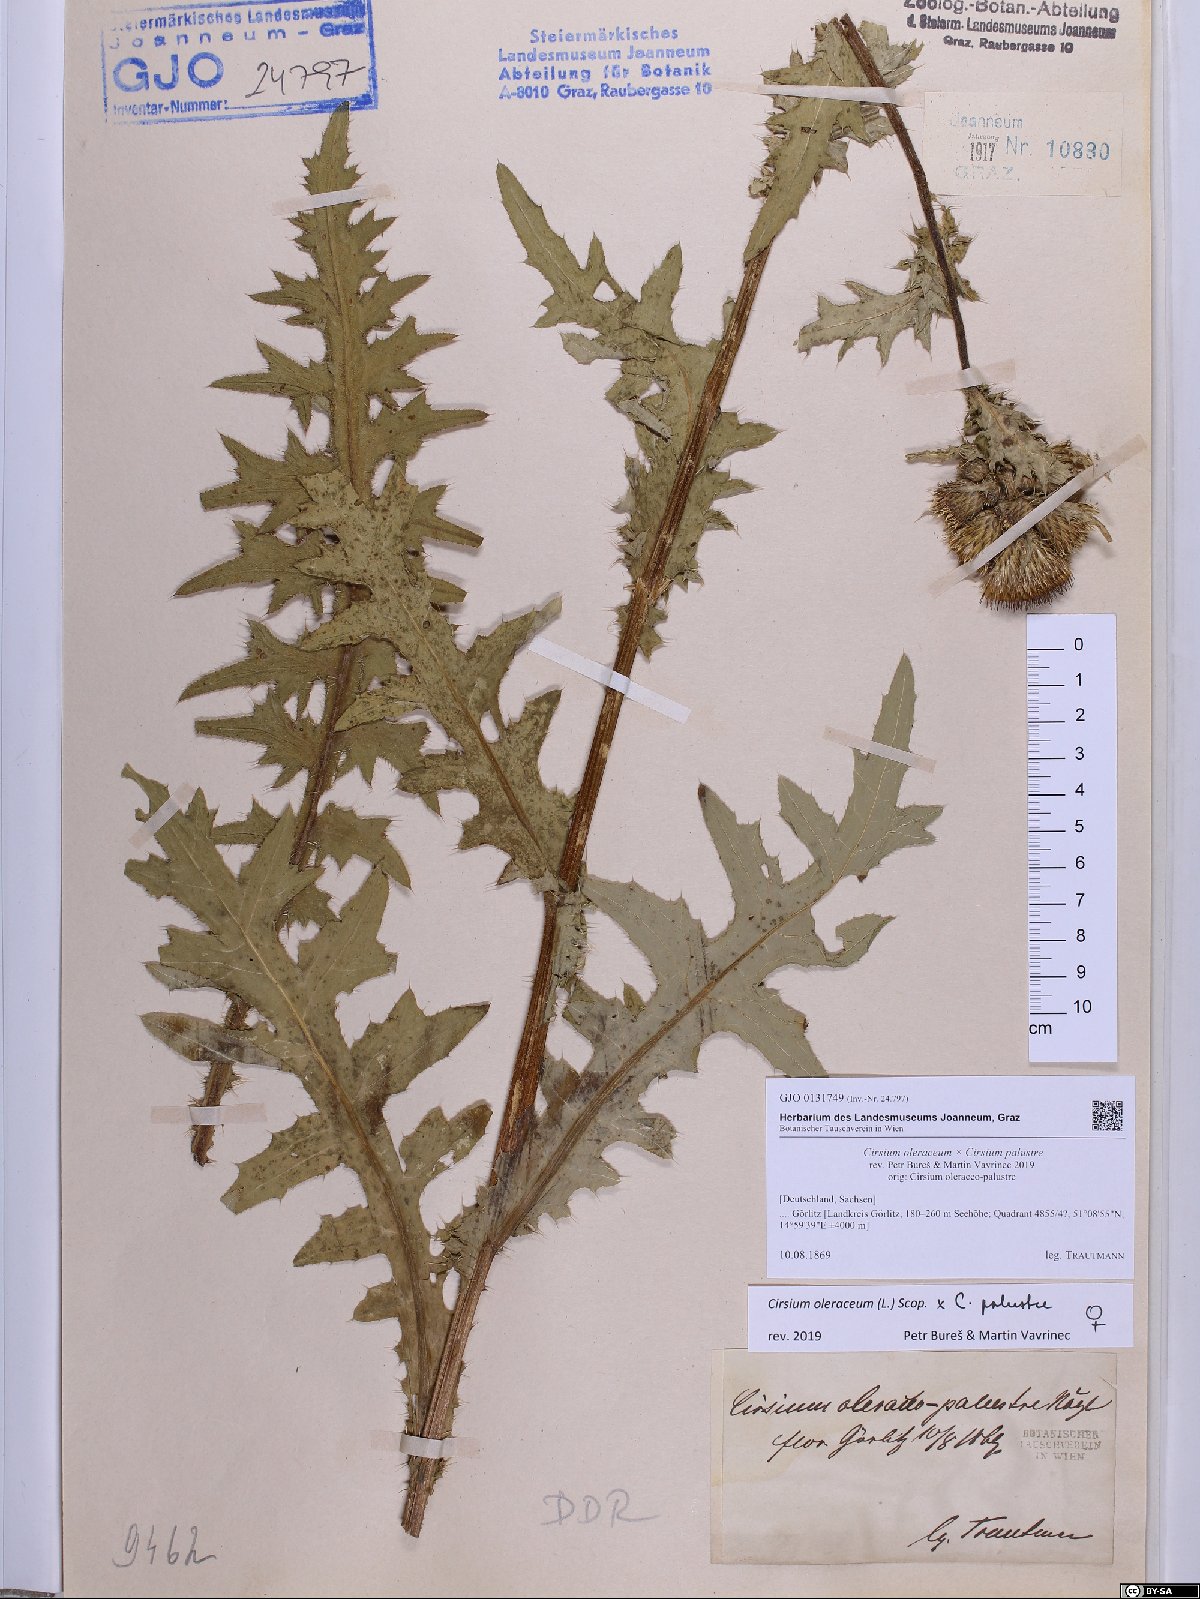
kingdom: Plantae
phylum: Tracheophyta
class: Magnoliopsida
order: Asterales
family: Asteraceae
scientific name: Asteraceae
